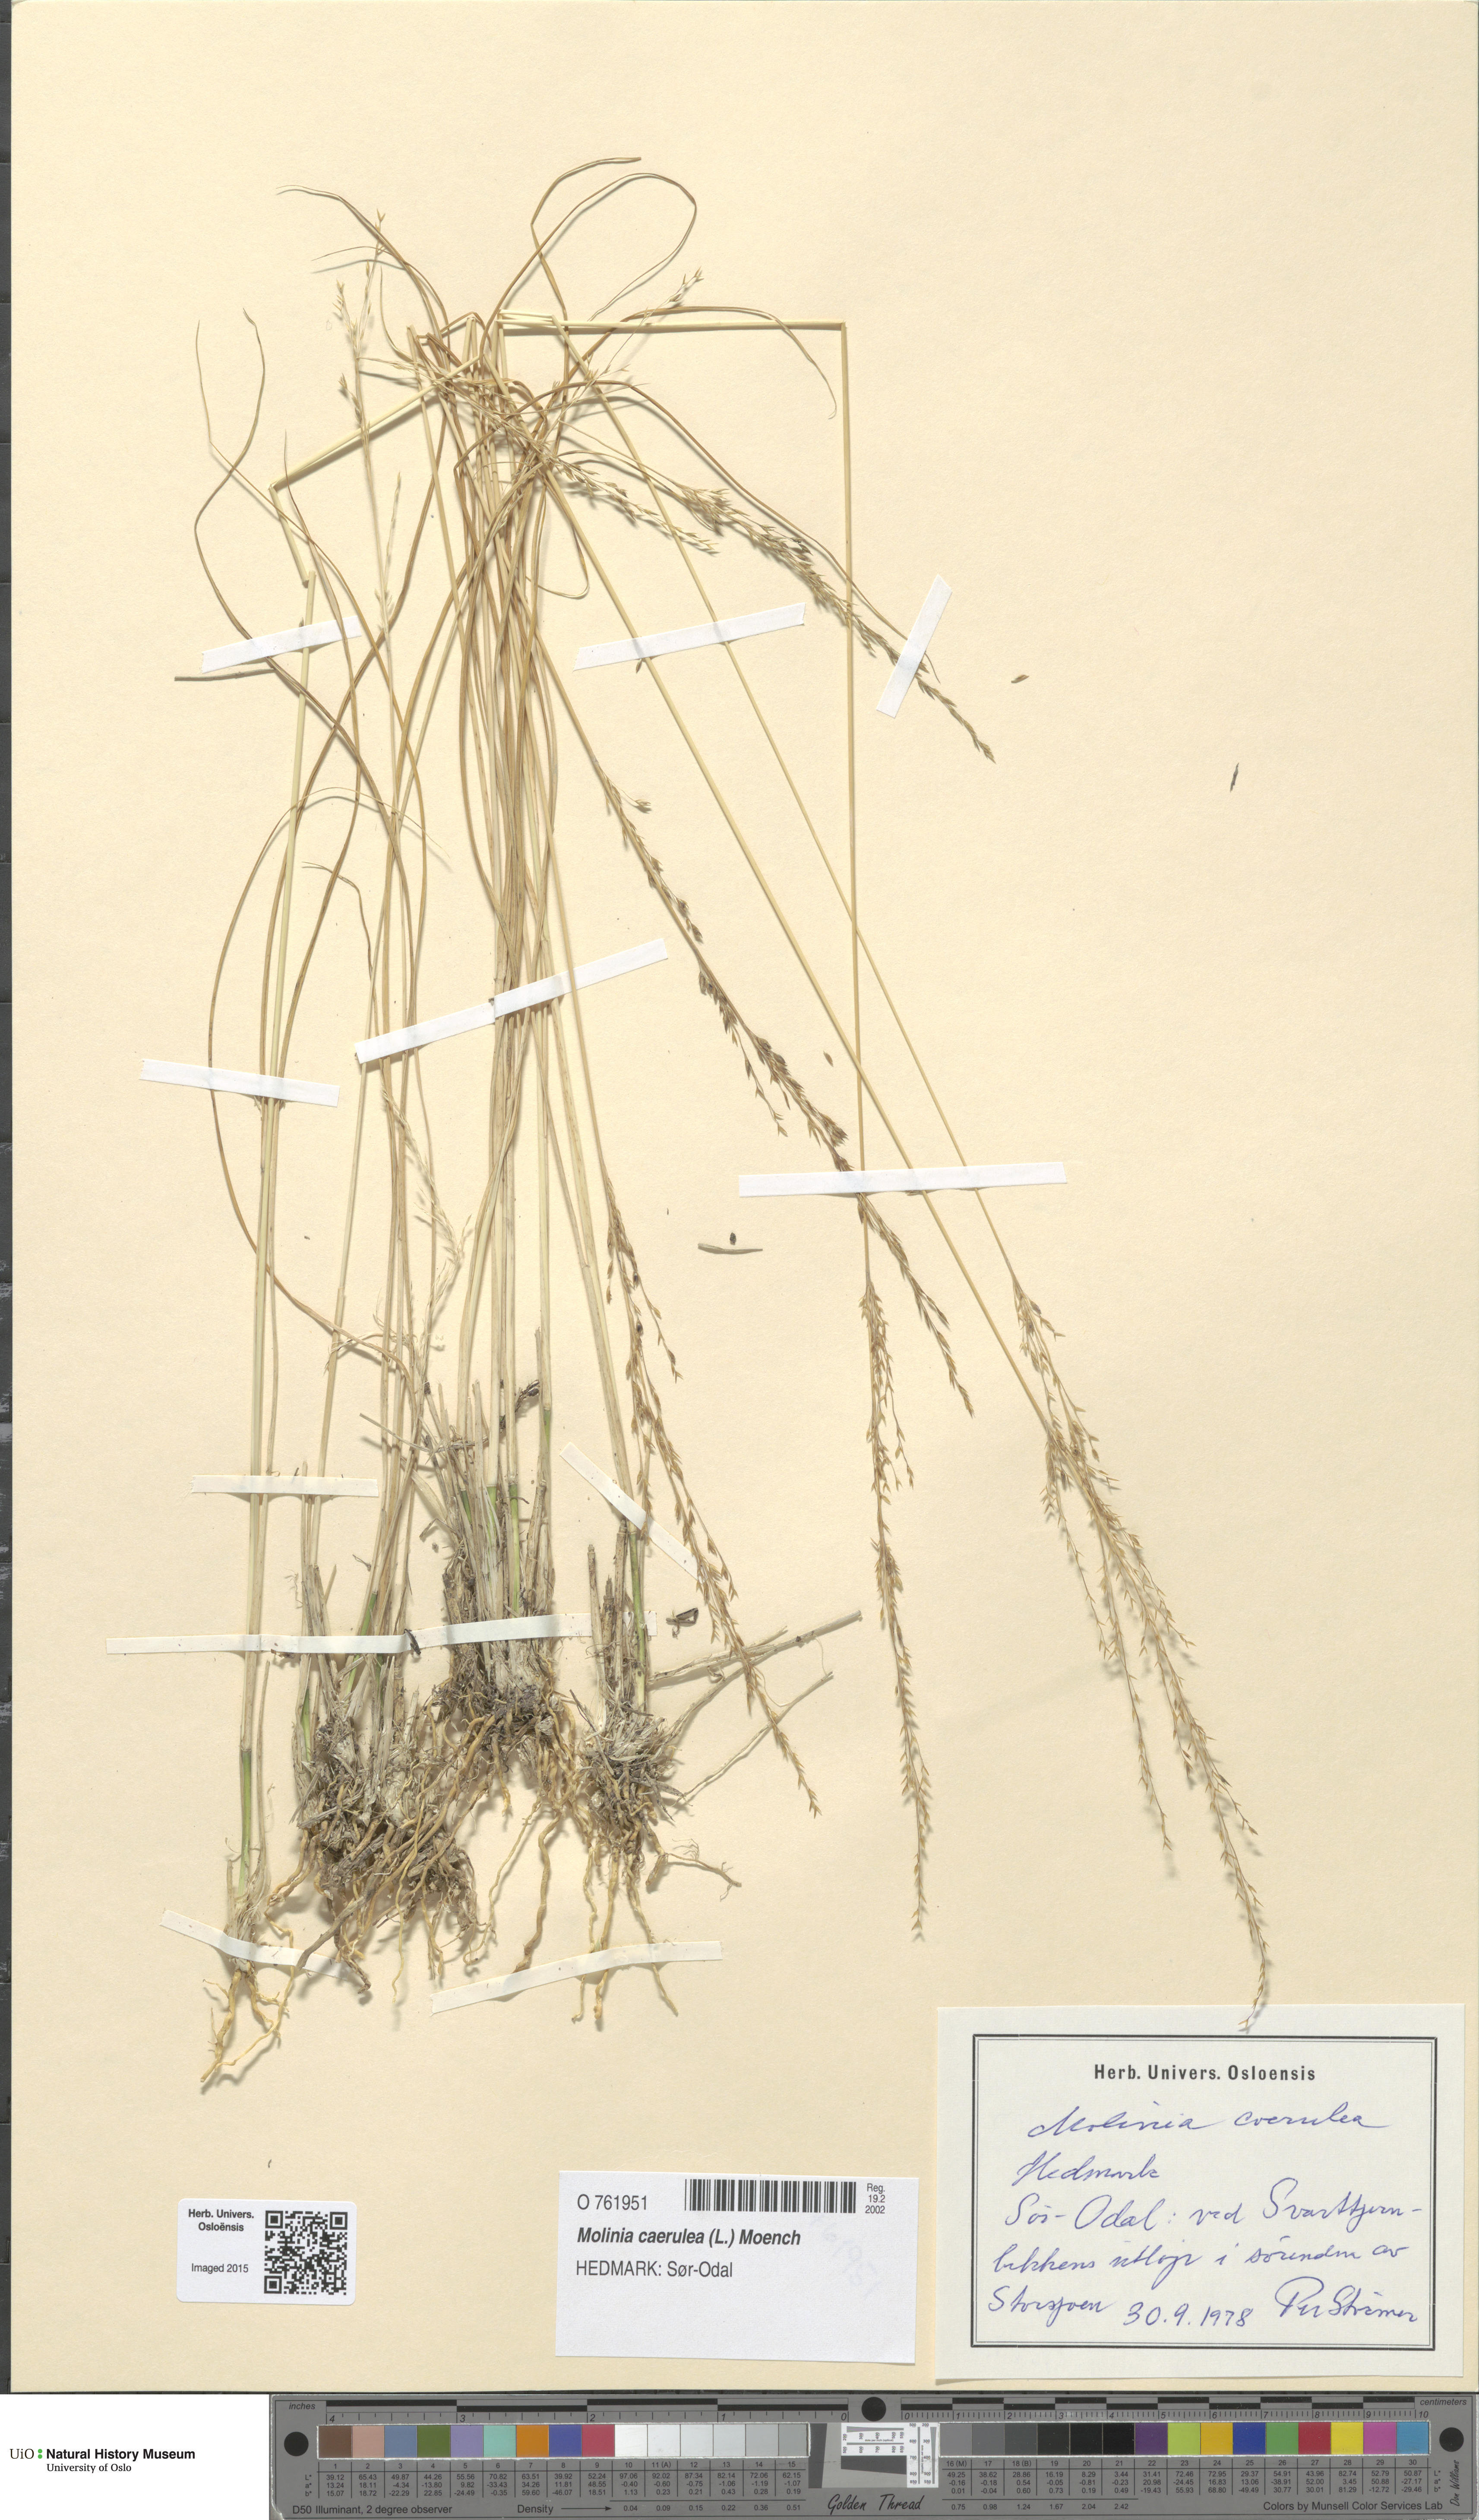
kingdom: Plantae
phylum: Tracheophyta
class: Liliopsida
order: Poales
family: Poaceae
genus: Molinia
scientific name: Molinia caerulea
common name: Purple moor-grass
